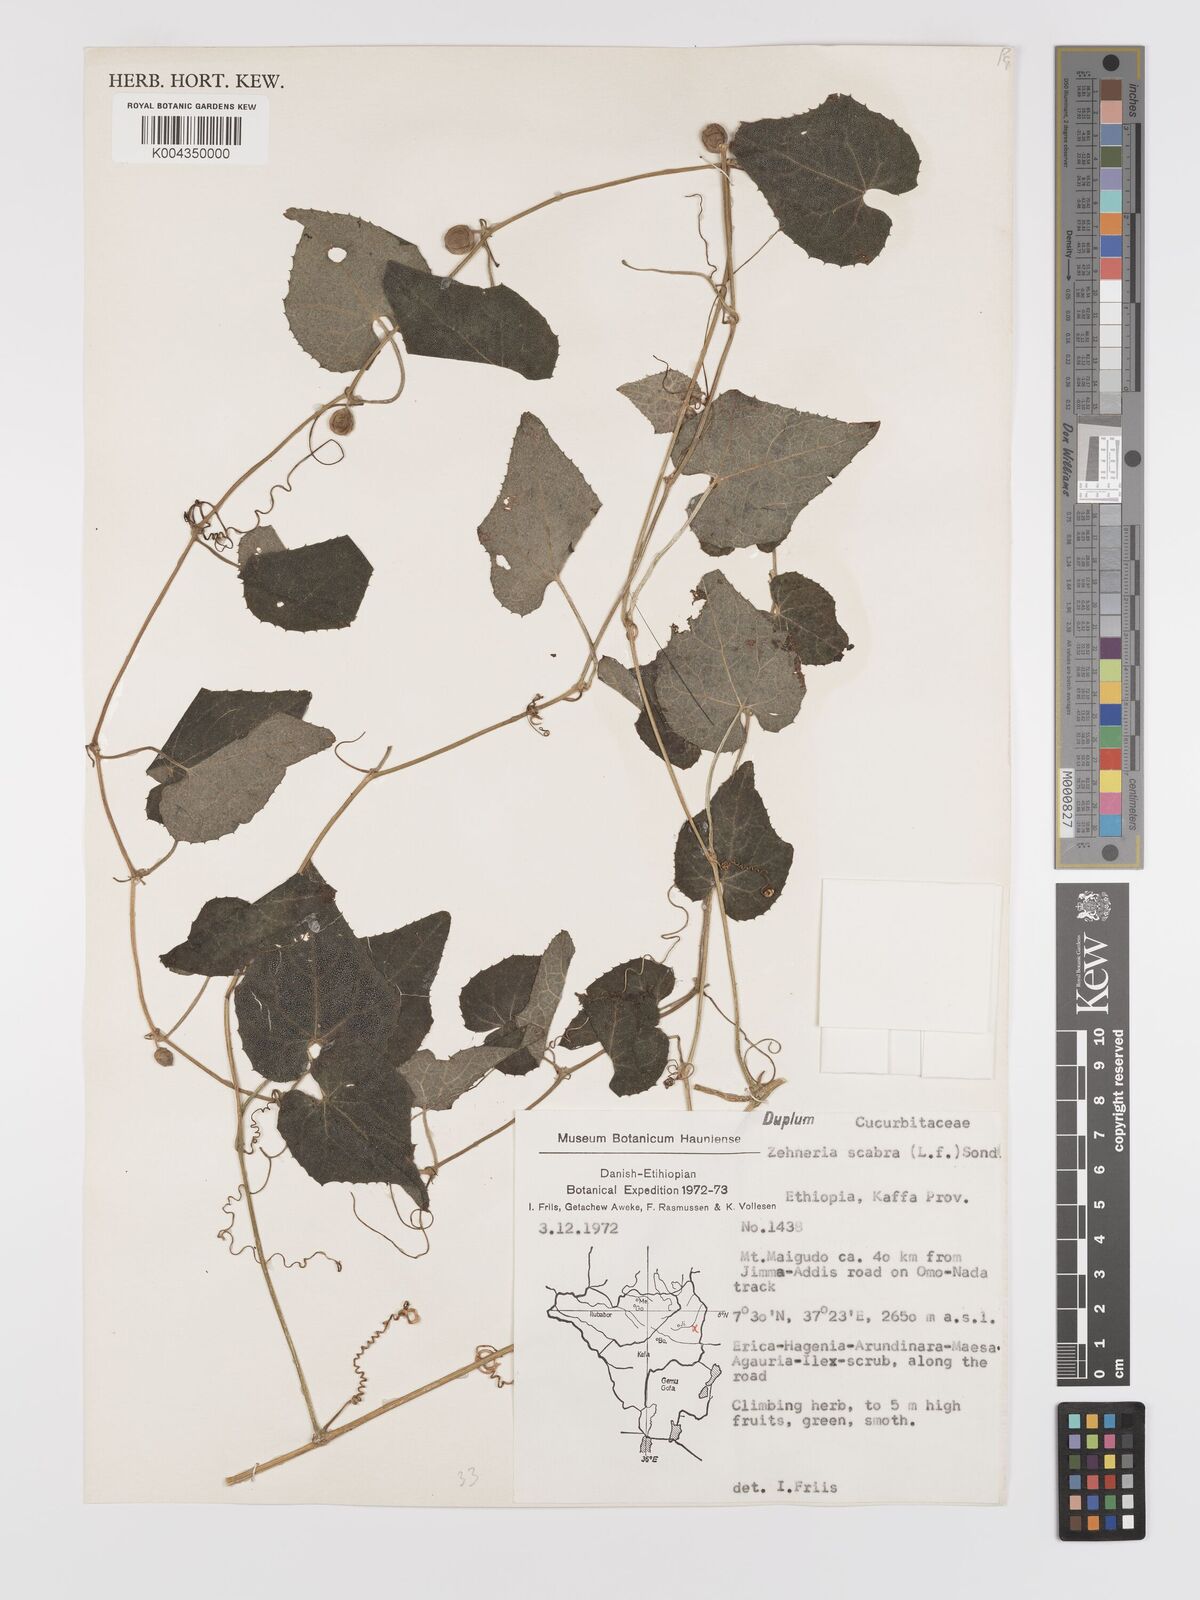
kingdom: Plantae
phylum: Tracheophyta
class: Magnoliopsida
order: Cucurbitales
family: Cucurbitaceae
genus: Zehneria
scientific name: Zehneria scabra
